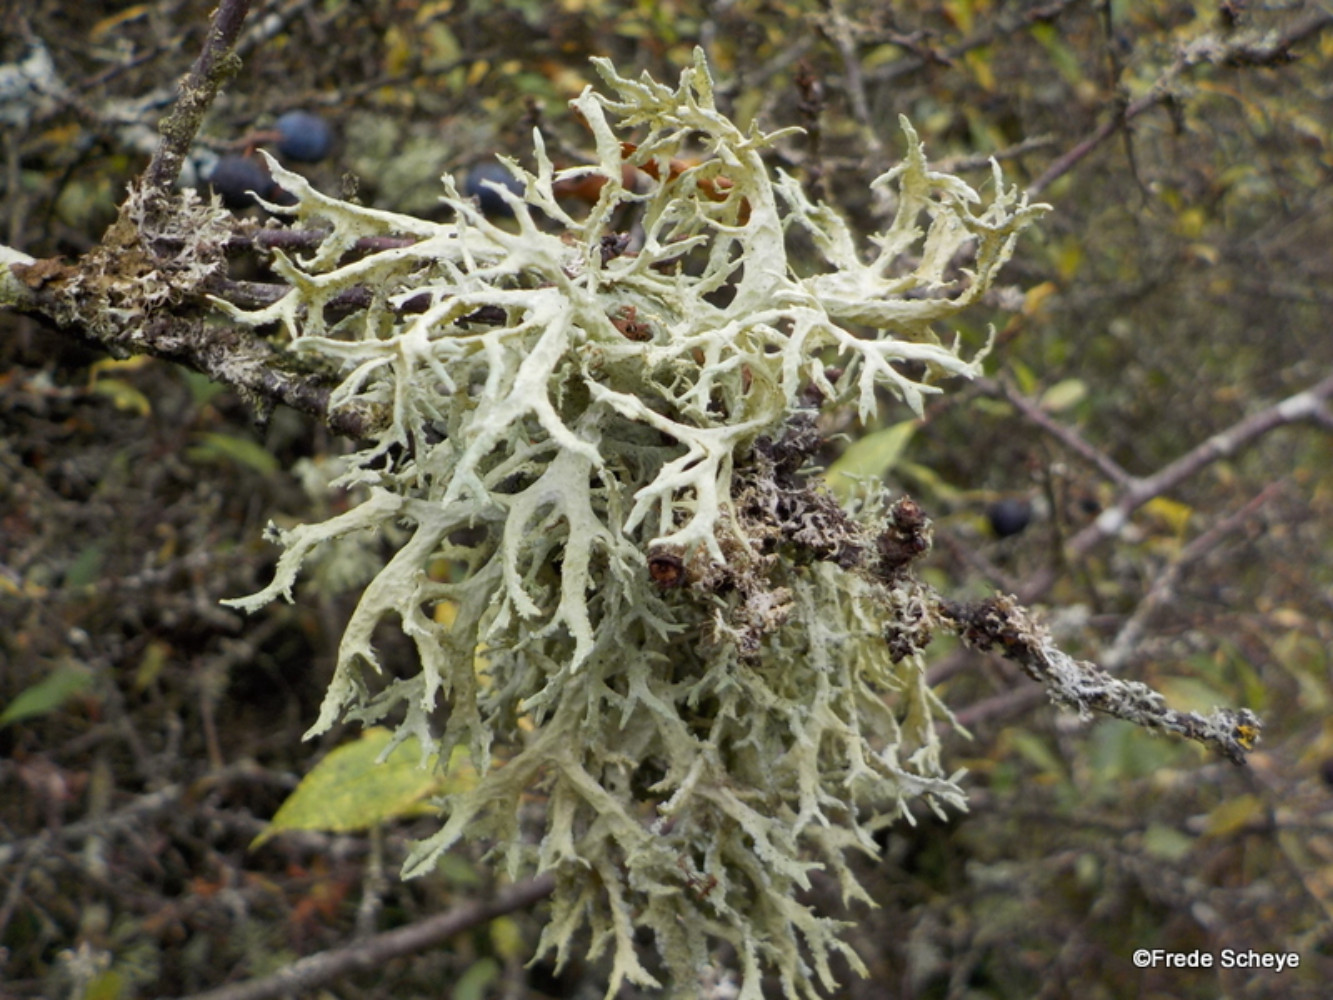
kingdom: Fungi
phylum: Ascomycota
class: Lecanoromycetes
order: Lecanorales
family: Parmeliaceae
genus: Evernia
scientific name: Evernia prunastri
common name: almindelig slåenlav
